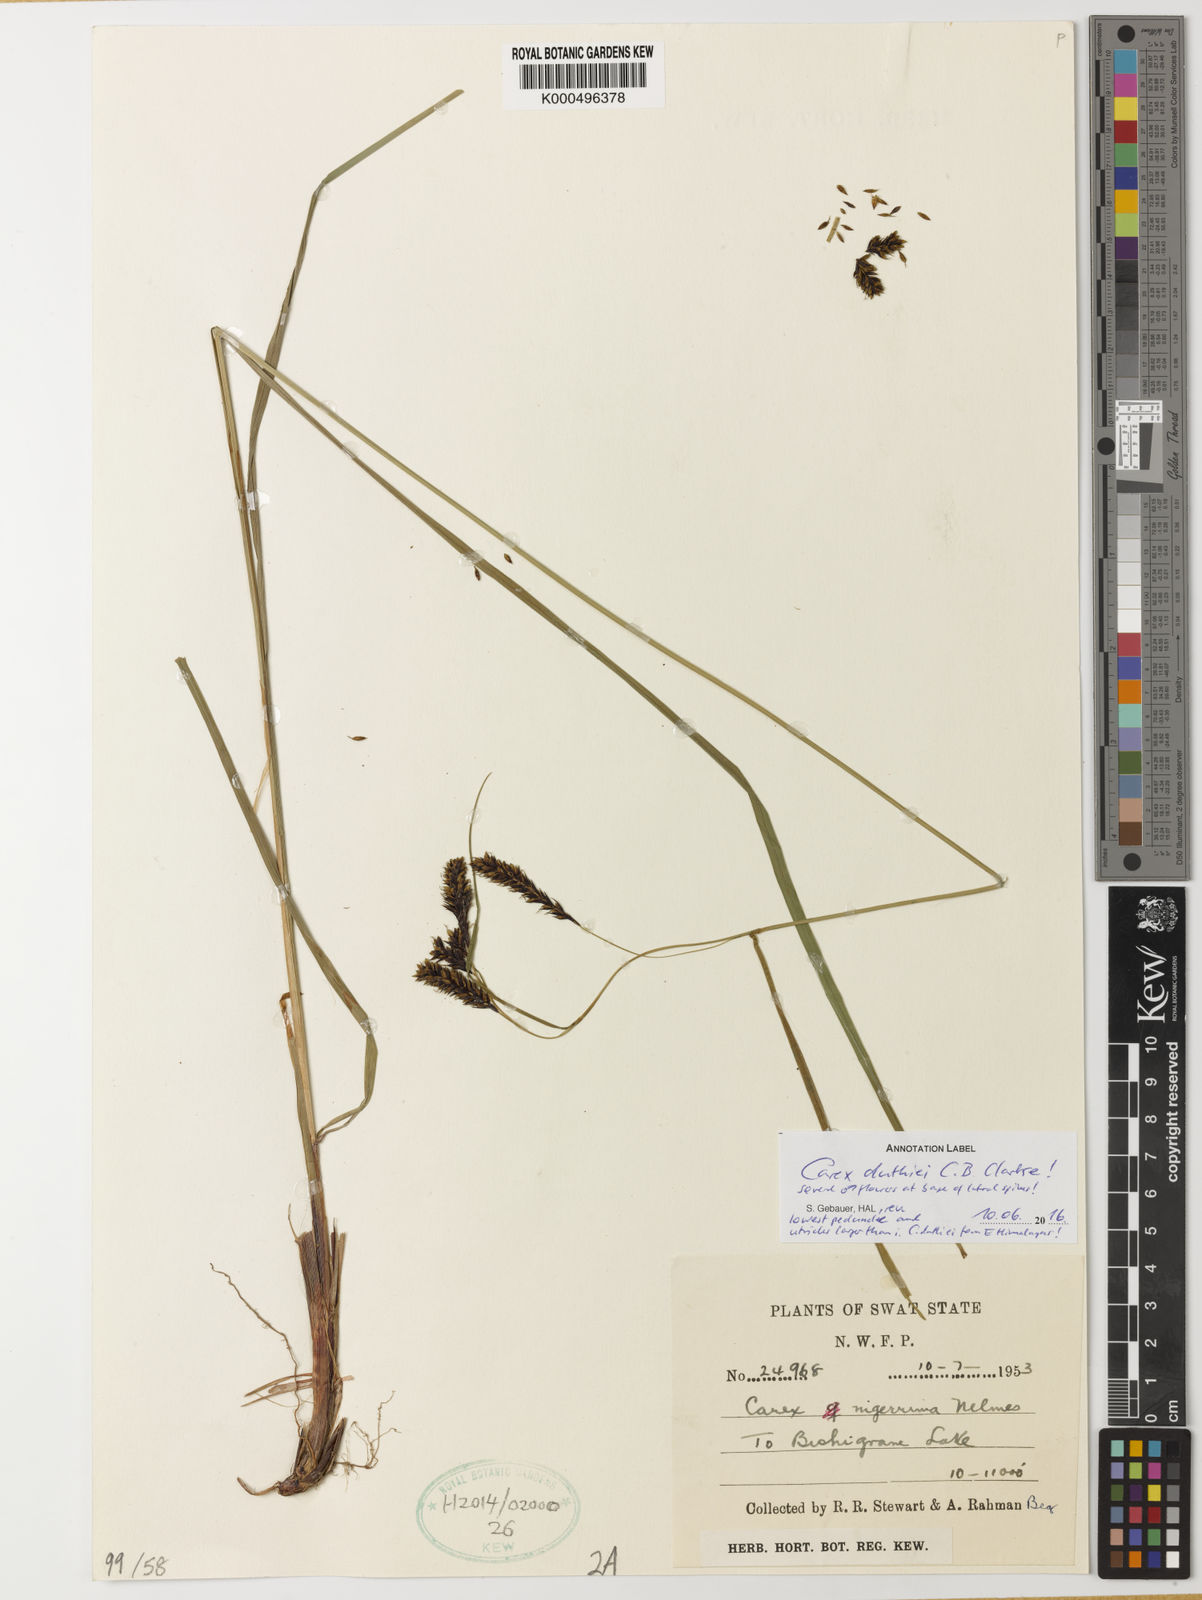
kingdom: Plantae
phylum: Tracheophyta
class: Liliopsida
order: Poales
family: Cyperaceae
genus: Carex
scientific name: Carex gracilenta
